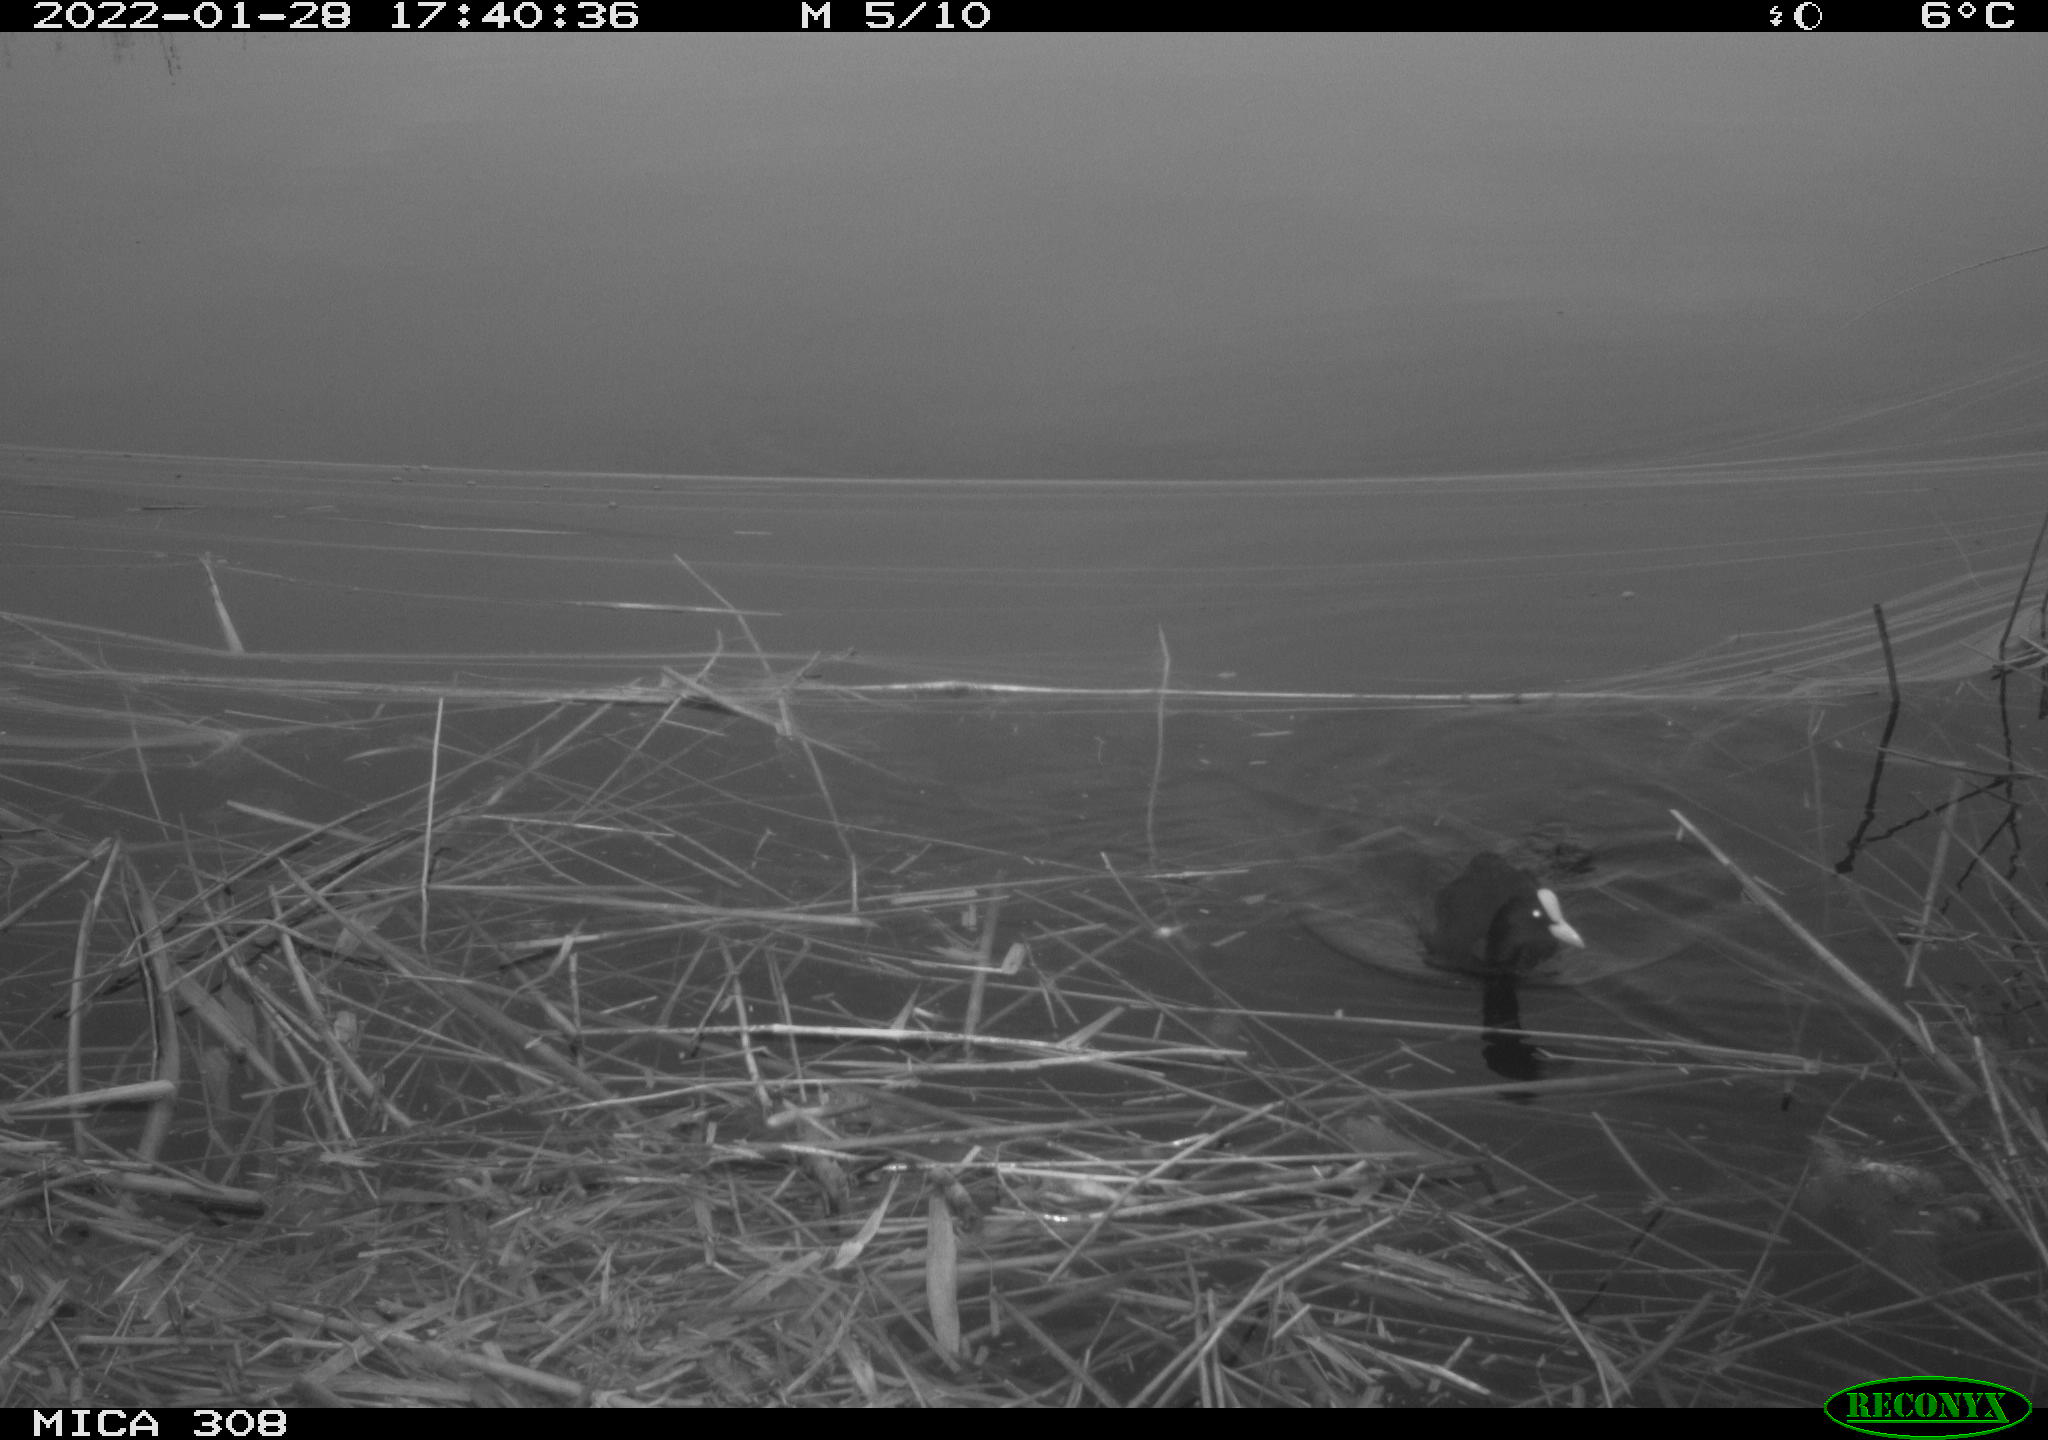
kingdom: Animalia
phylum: Chordata
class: Aves
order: Gruiformes
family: Rallidae
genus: Gallinula
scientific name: Gallinula chloropus
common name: Common moorhen
